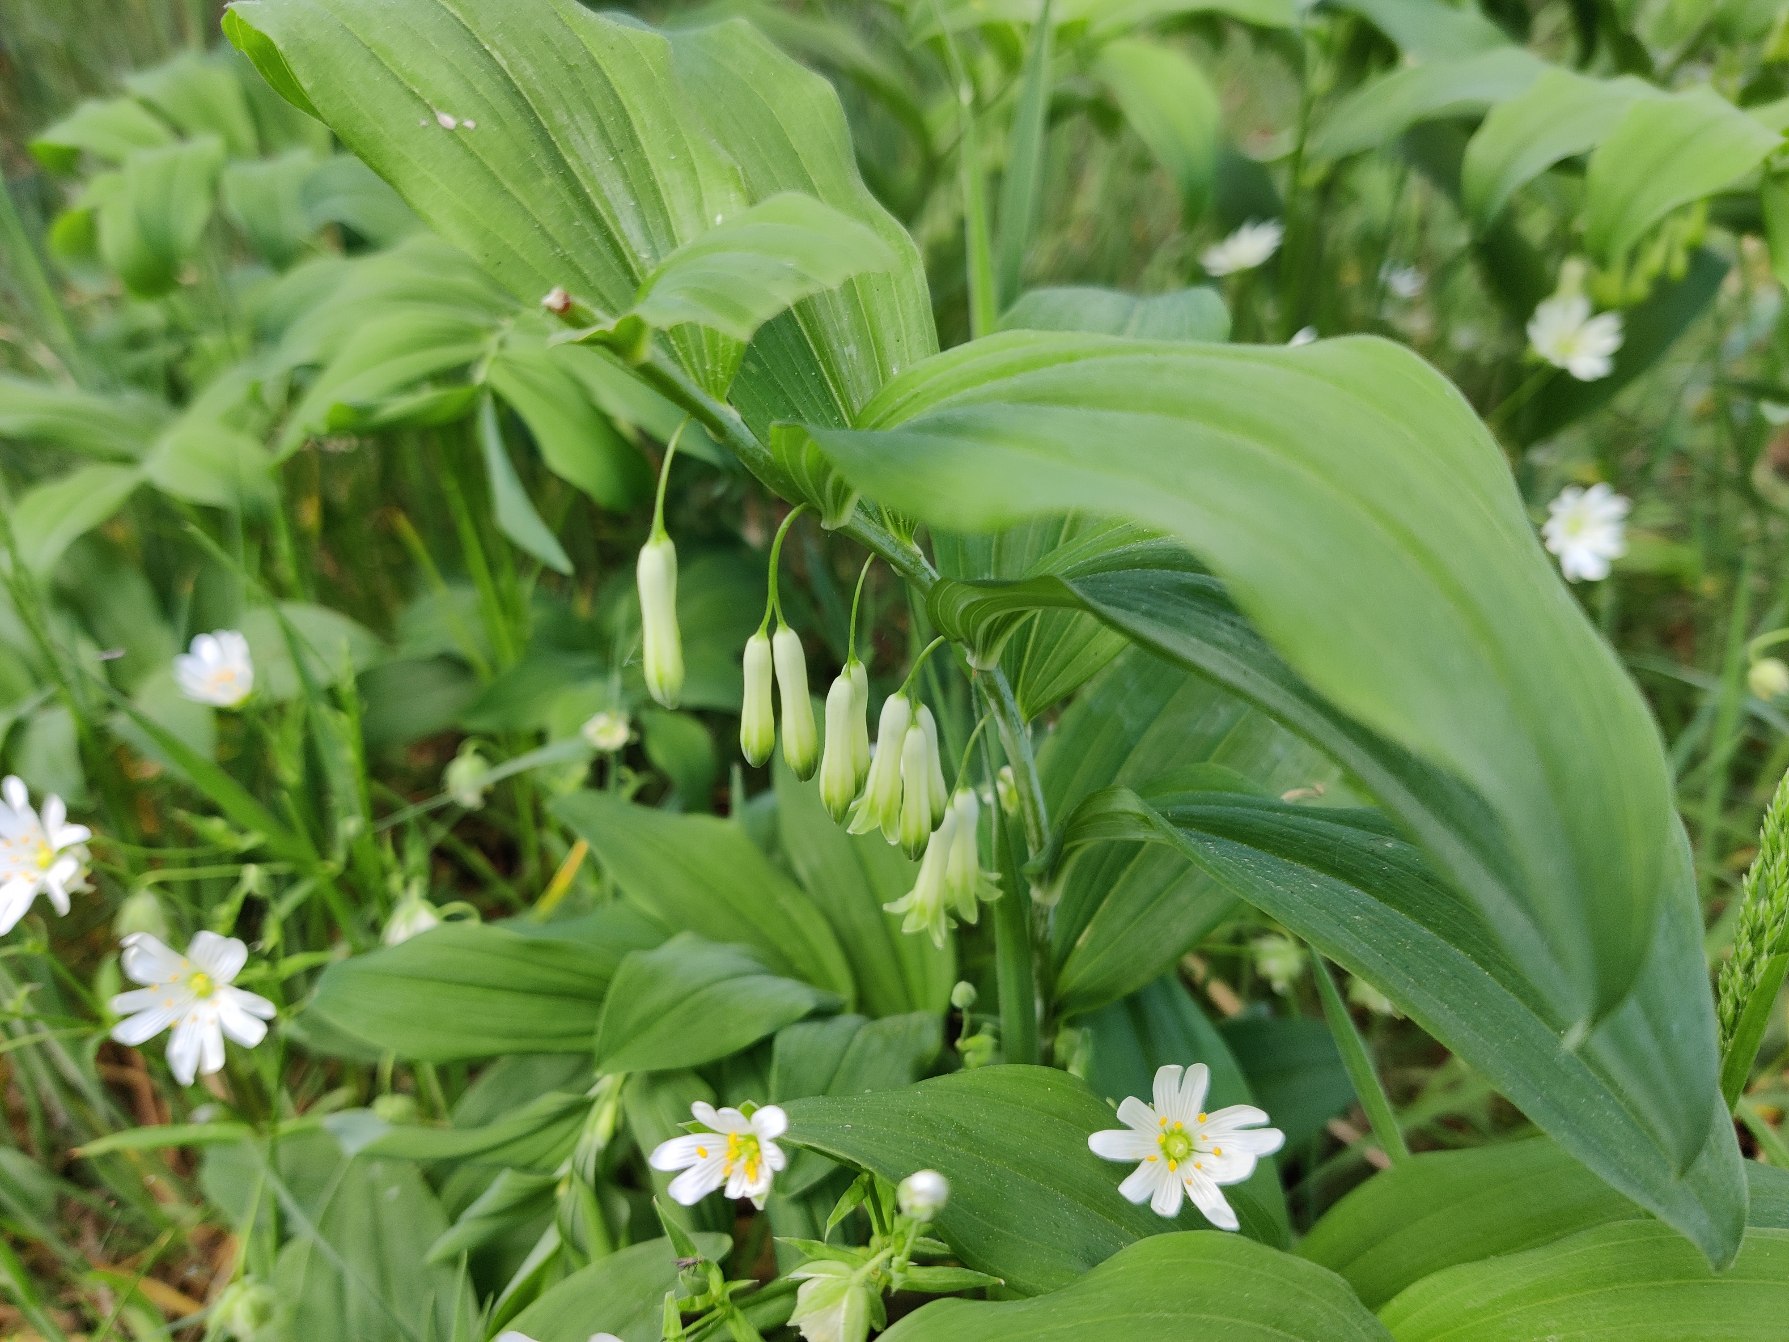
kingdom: Plantae
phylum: Tracheophyta
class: Liliopsida
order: Asparagales
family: Asparagaceae
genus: Polygonatum
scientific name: Polygonatum
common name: Hybrid-konval
